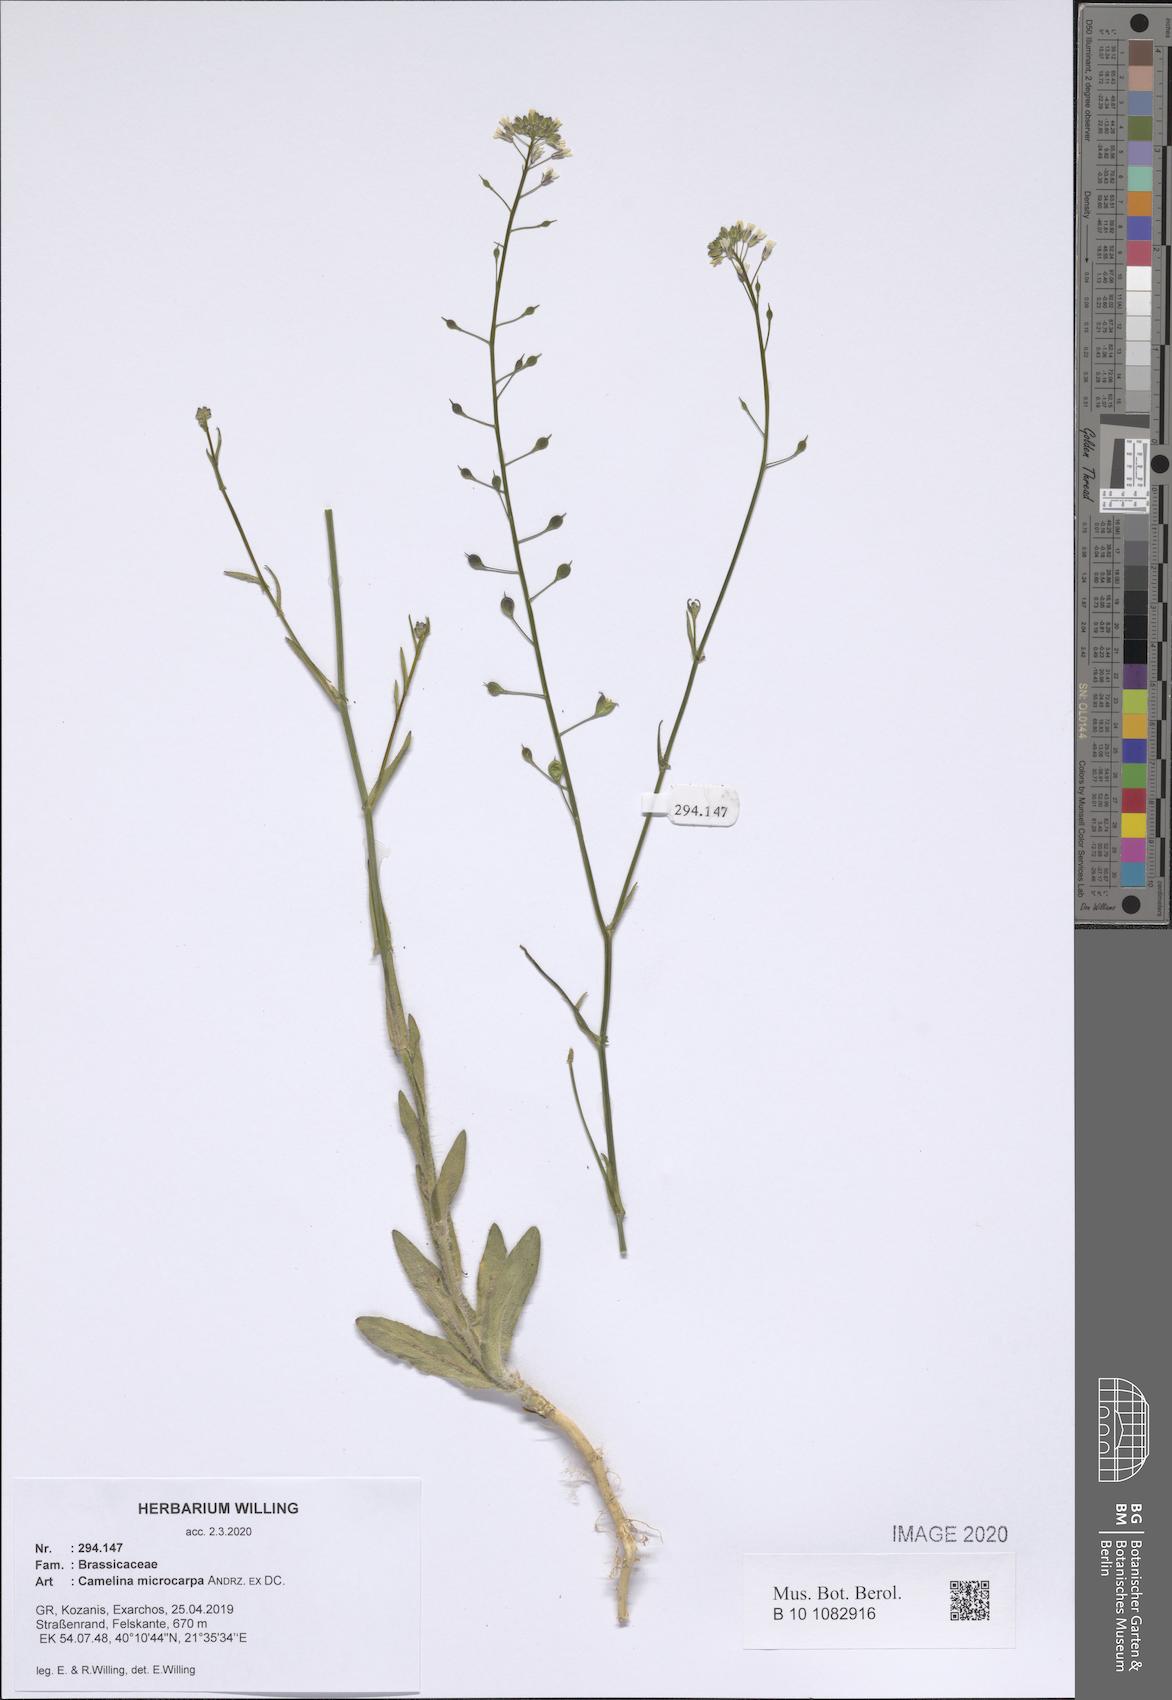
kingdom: Plantae
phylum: Tracheophyta
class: Magnoliopsida
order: Brassicales
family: Brassicaceae
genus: Camelina
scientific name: Camelina microcarpa
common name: Lesser gold-of-pleasure
